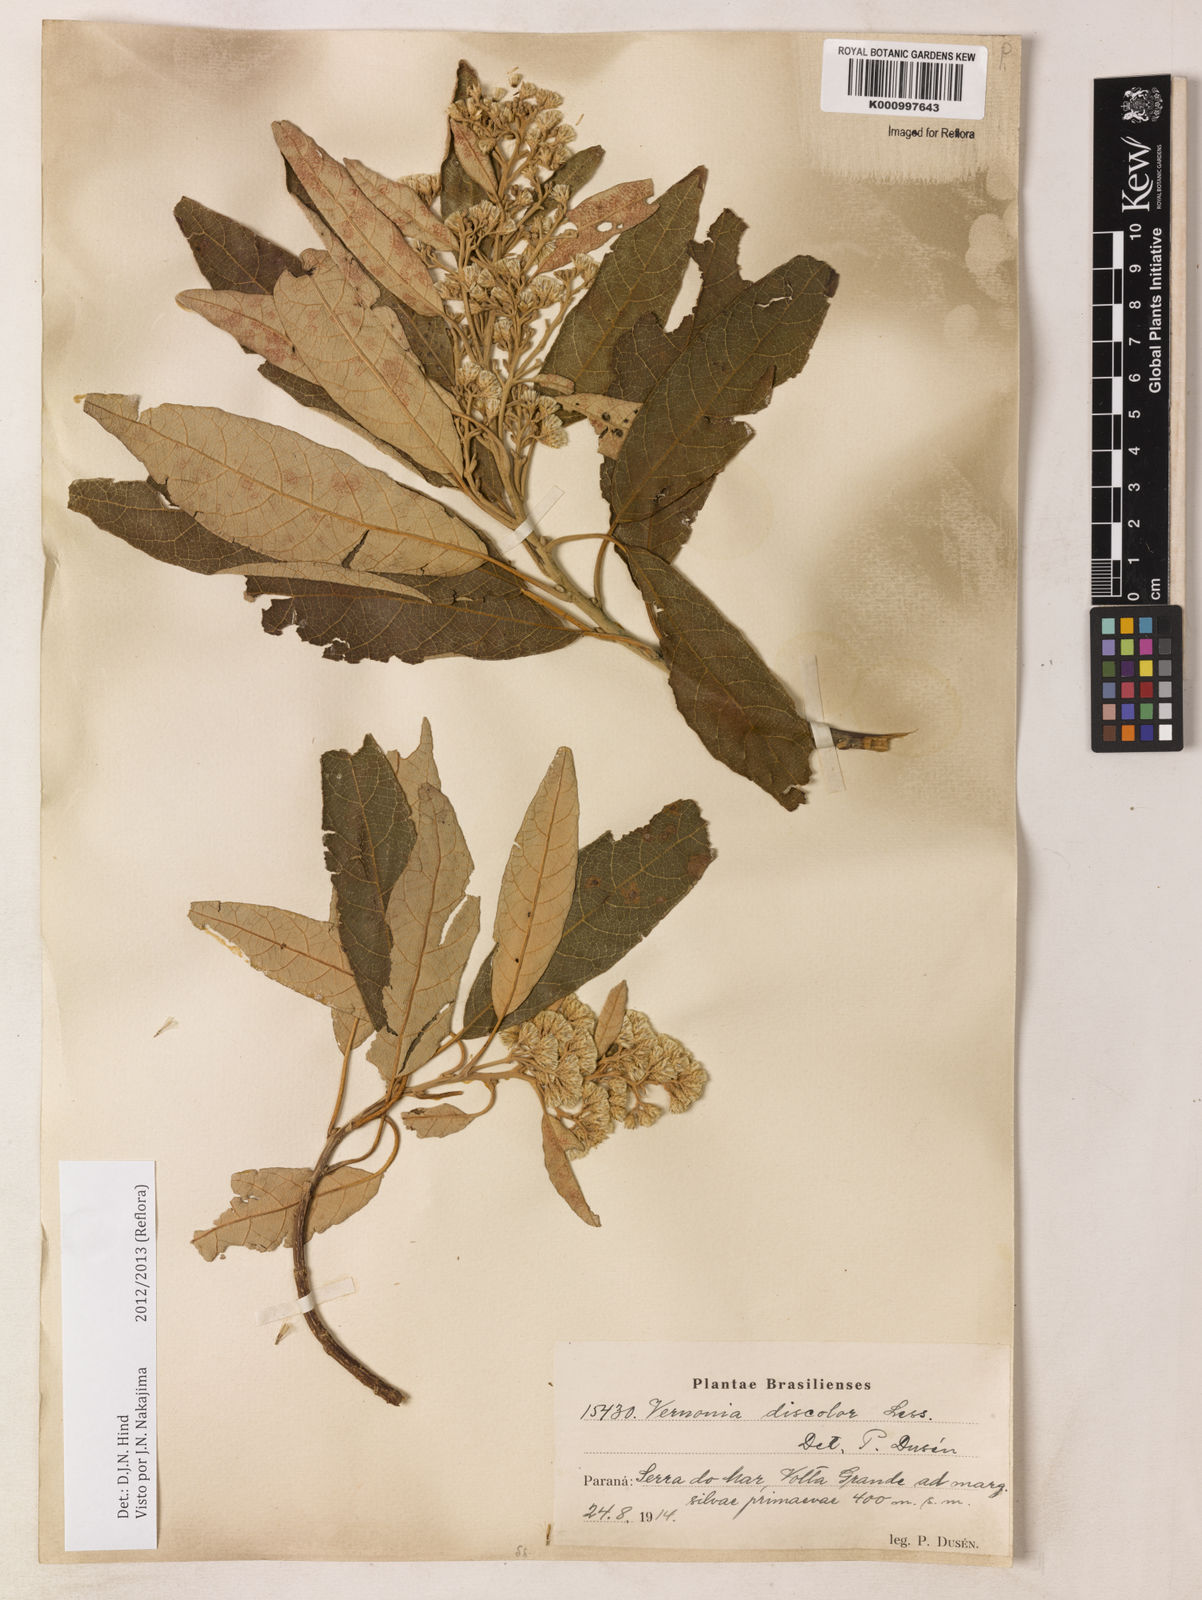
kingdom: Plantae
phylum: Tracheophyta
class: Magnoliopsida
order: Asterales
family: Asteraceae
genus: Vernonanthura
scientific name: Vernonanthura discolor
